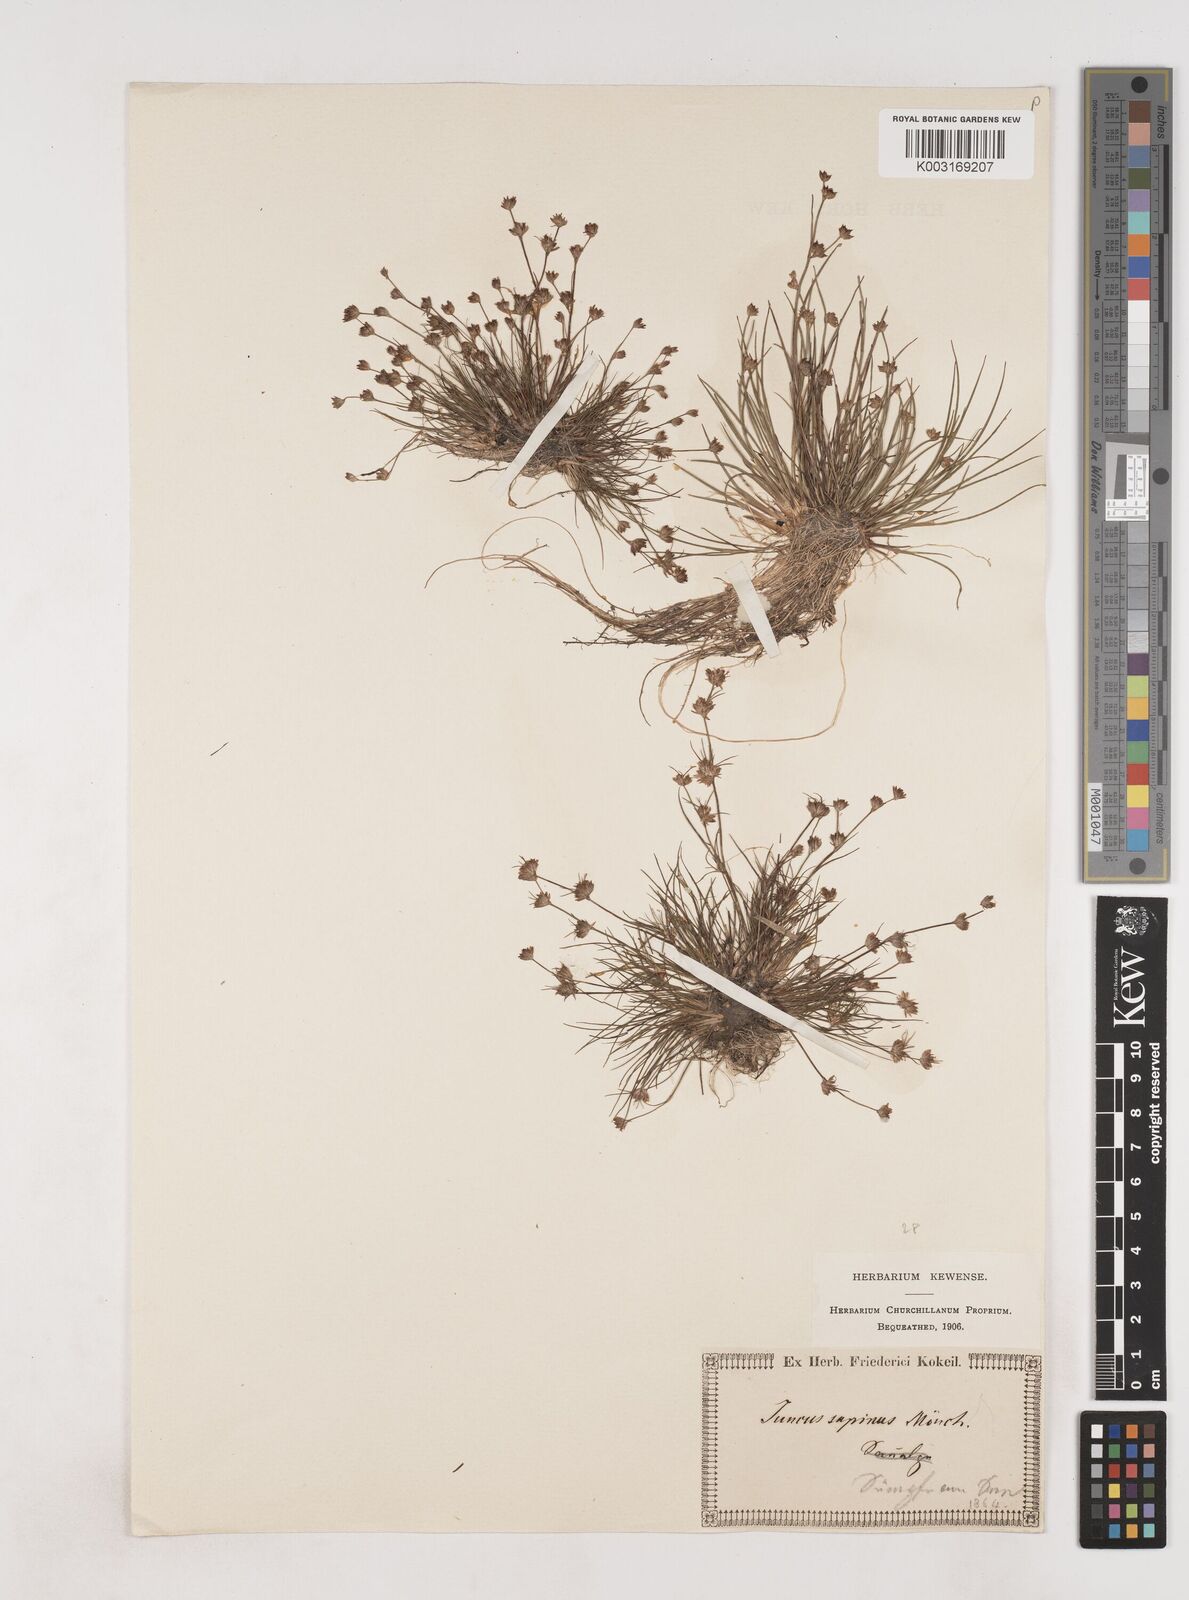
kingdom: Plantae
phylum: Tracheophyta
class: Liliopsida
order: Poales
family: Juncaceae
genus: Juncus
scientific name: Juncus bulbosus
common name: Bulbous rush
